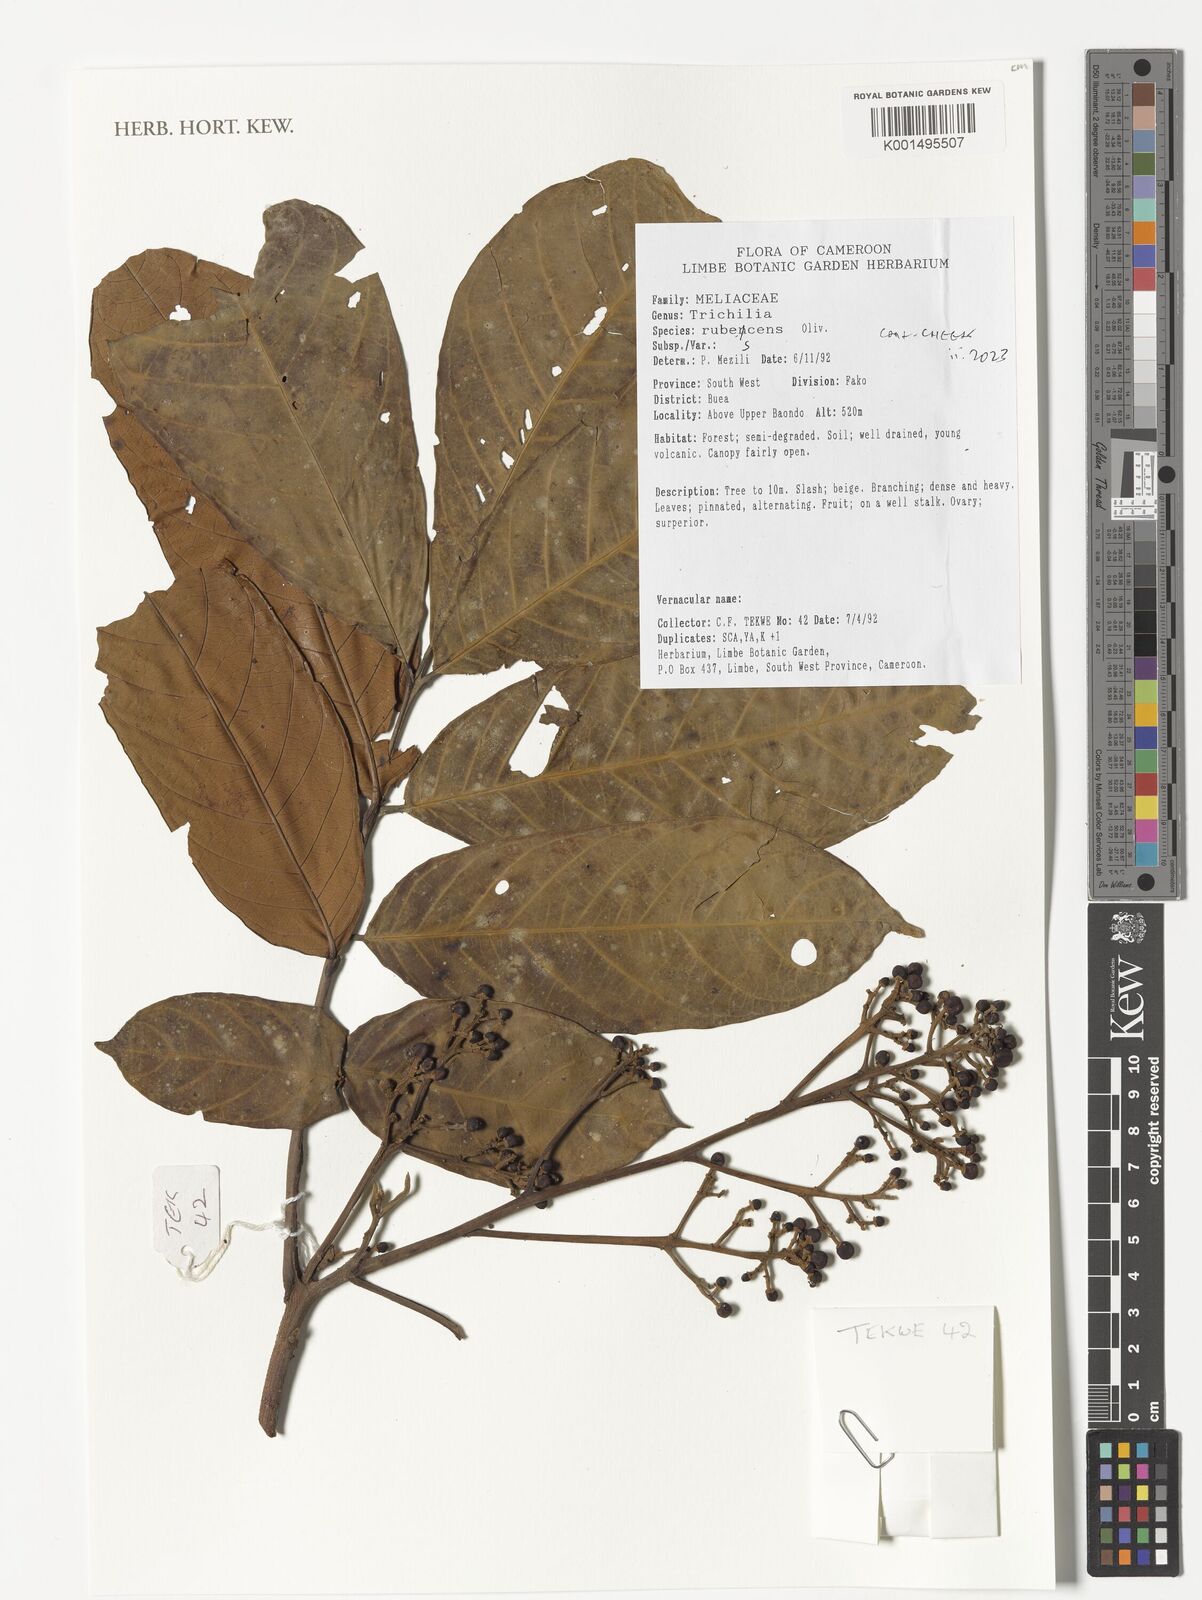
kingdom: Plantae
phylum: Tracheophyta
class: Magnoliopsida
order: Sapindales
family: Meliaceae
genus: Trichilia
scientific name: Trichilia rubescens
